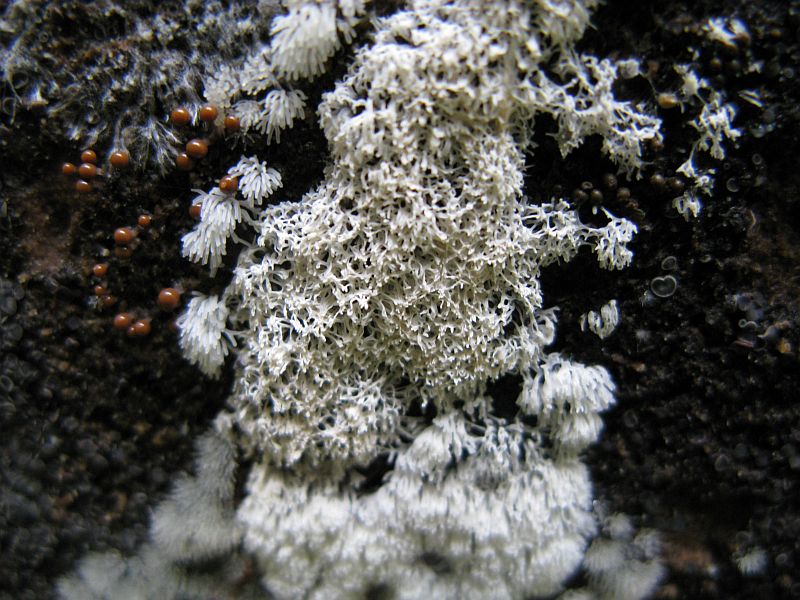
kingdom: Protozoa
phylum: Mycetozoa
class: Protosteliomycetes
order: Ceratiomyxales
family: Ceratiomyxaceae
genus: Ceratiomyxa
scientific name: Ceratiomyxa fruticulosa
